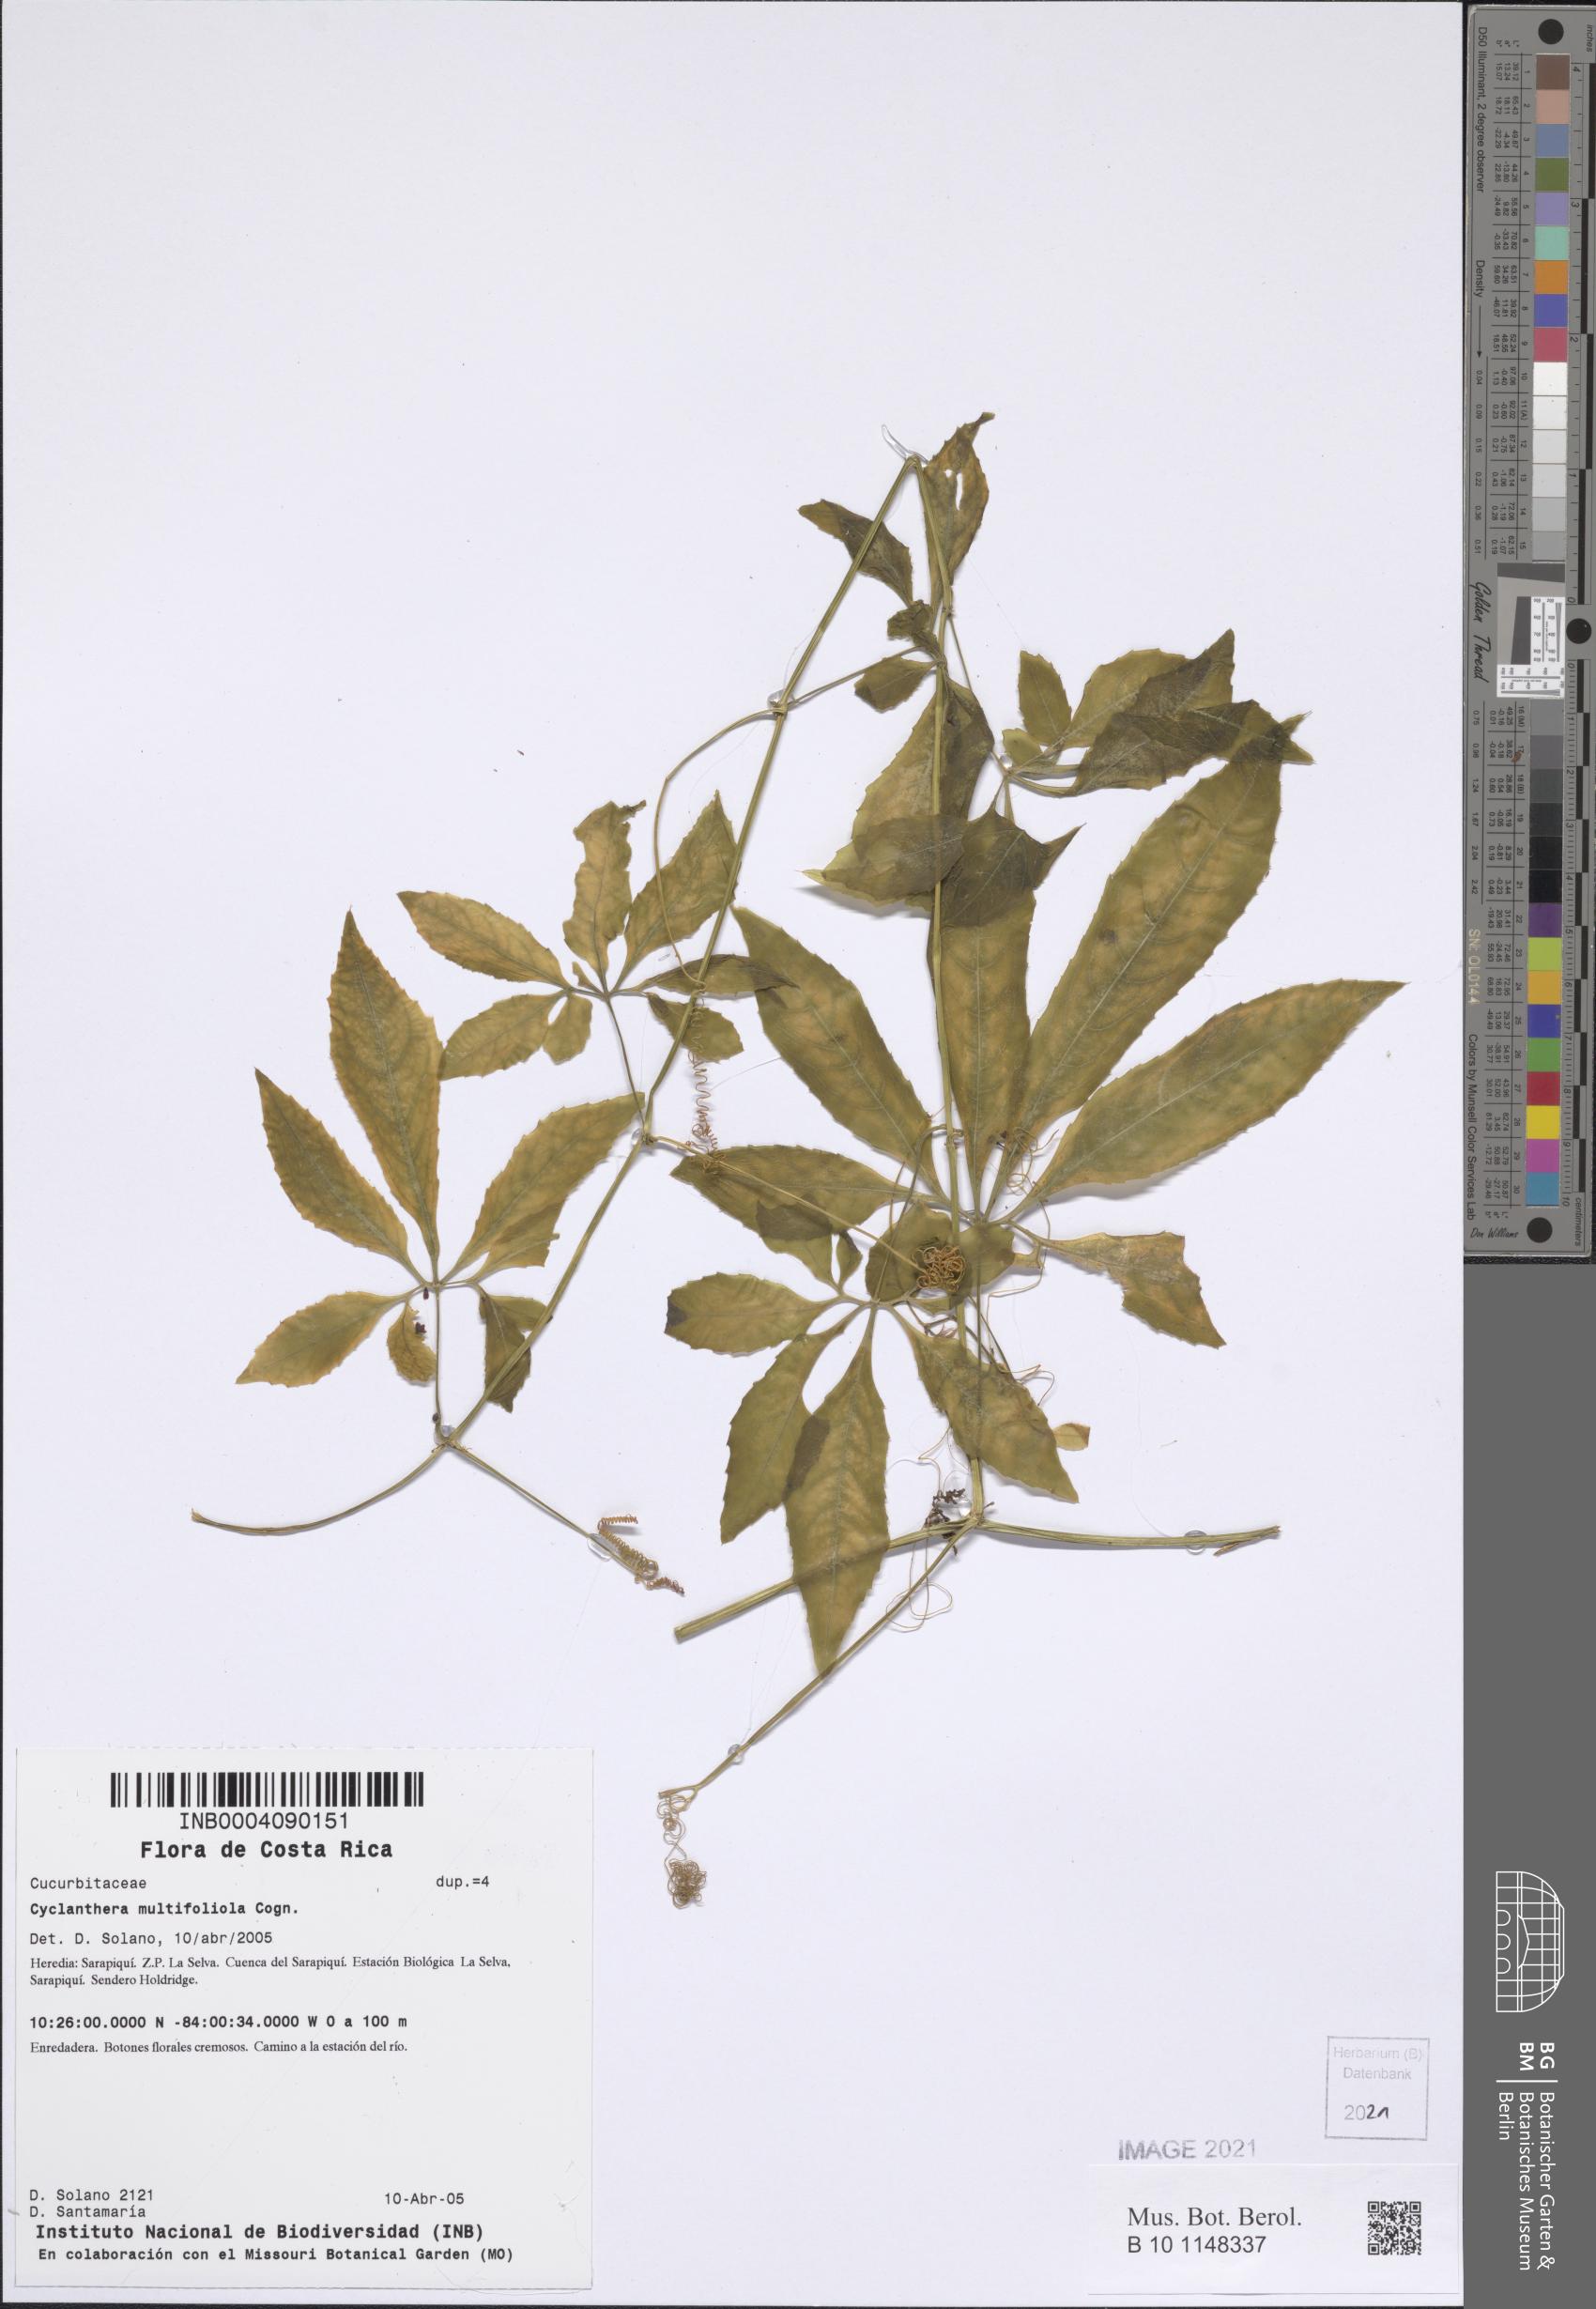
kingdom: Plantae
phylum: Tracheophyta
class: Magnoliopsida
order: Cucurbitales
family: Cucurbitaceae
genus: Cyclanthera
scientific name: Cyclanthera multifoliola
